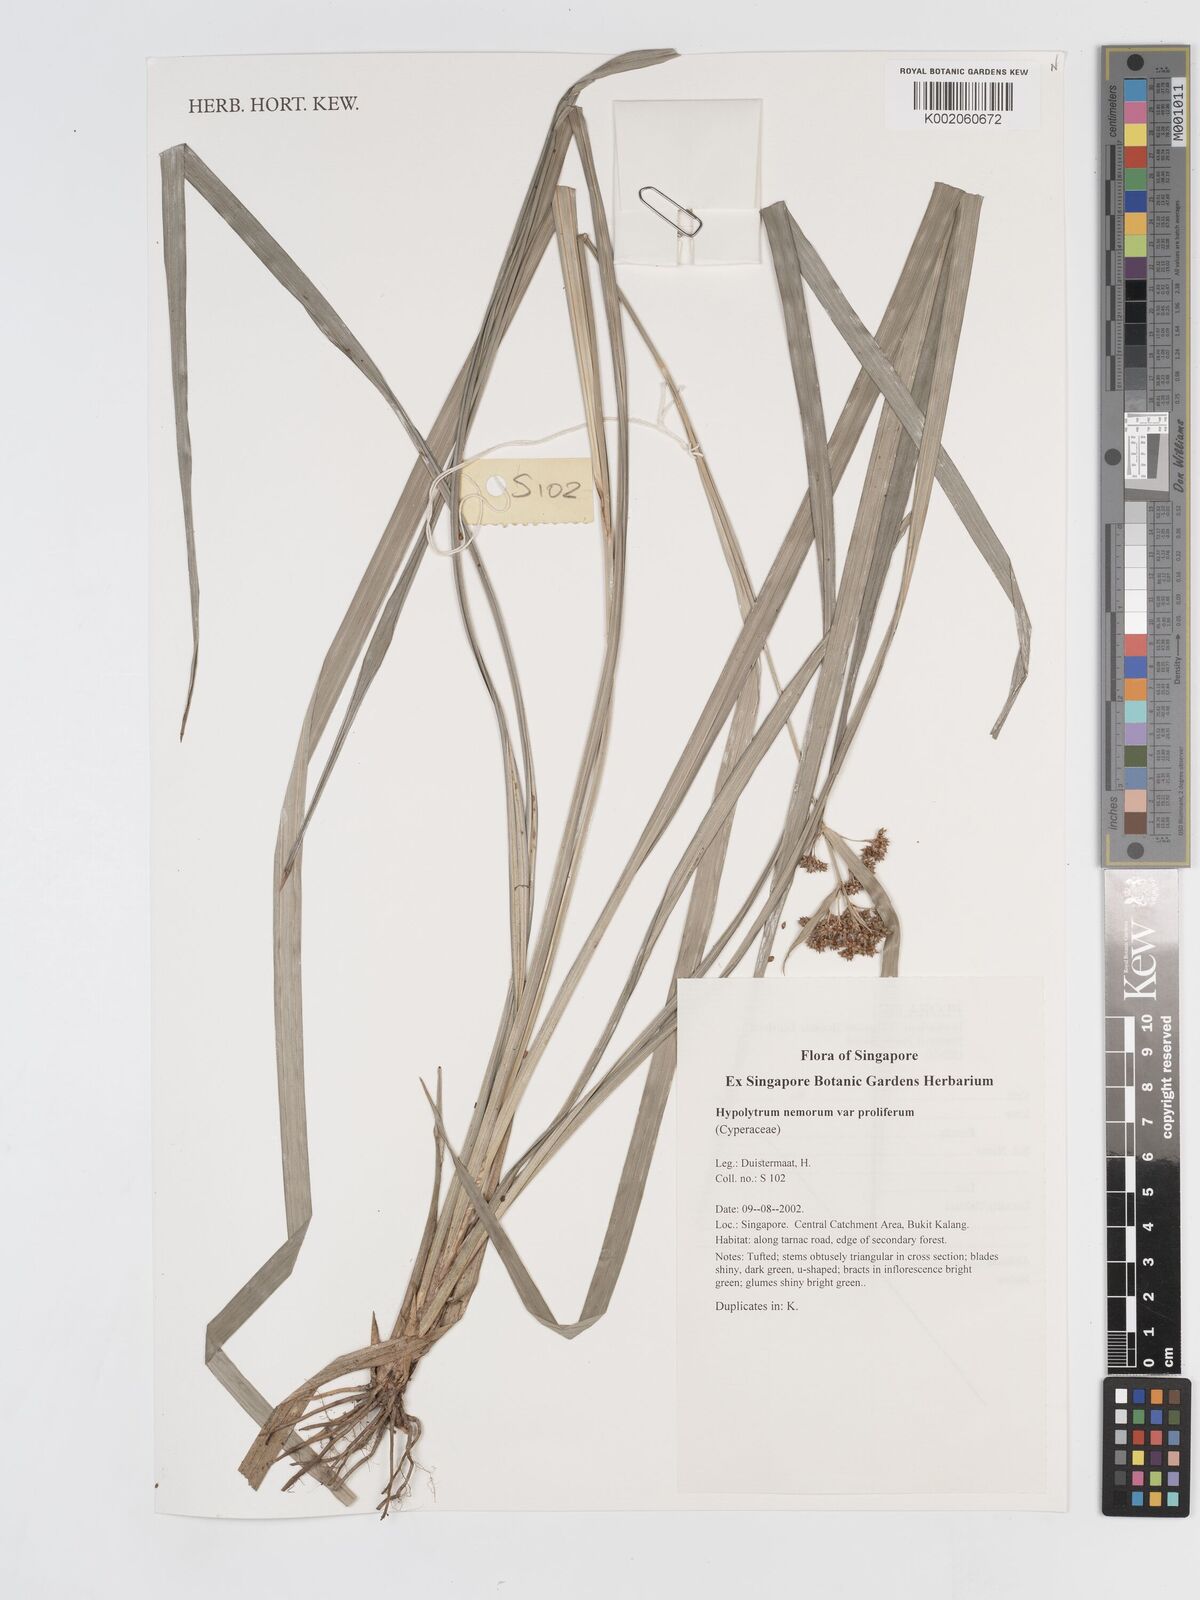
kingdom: Plantae
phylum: Tracheophyta
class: Liliopsida
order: Poales
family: Cyperaceae
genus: Hypolytrum
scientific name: Hypolytrum nemorum
